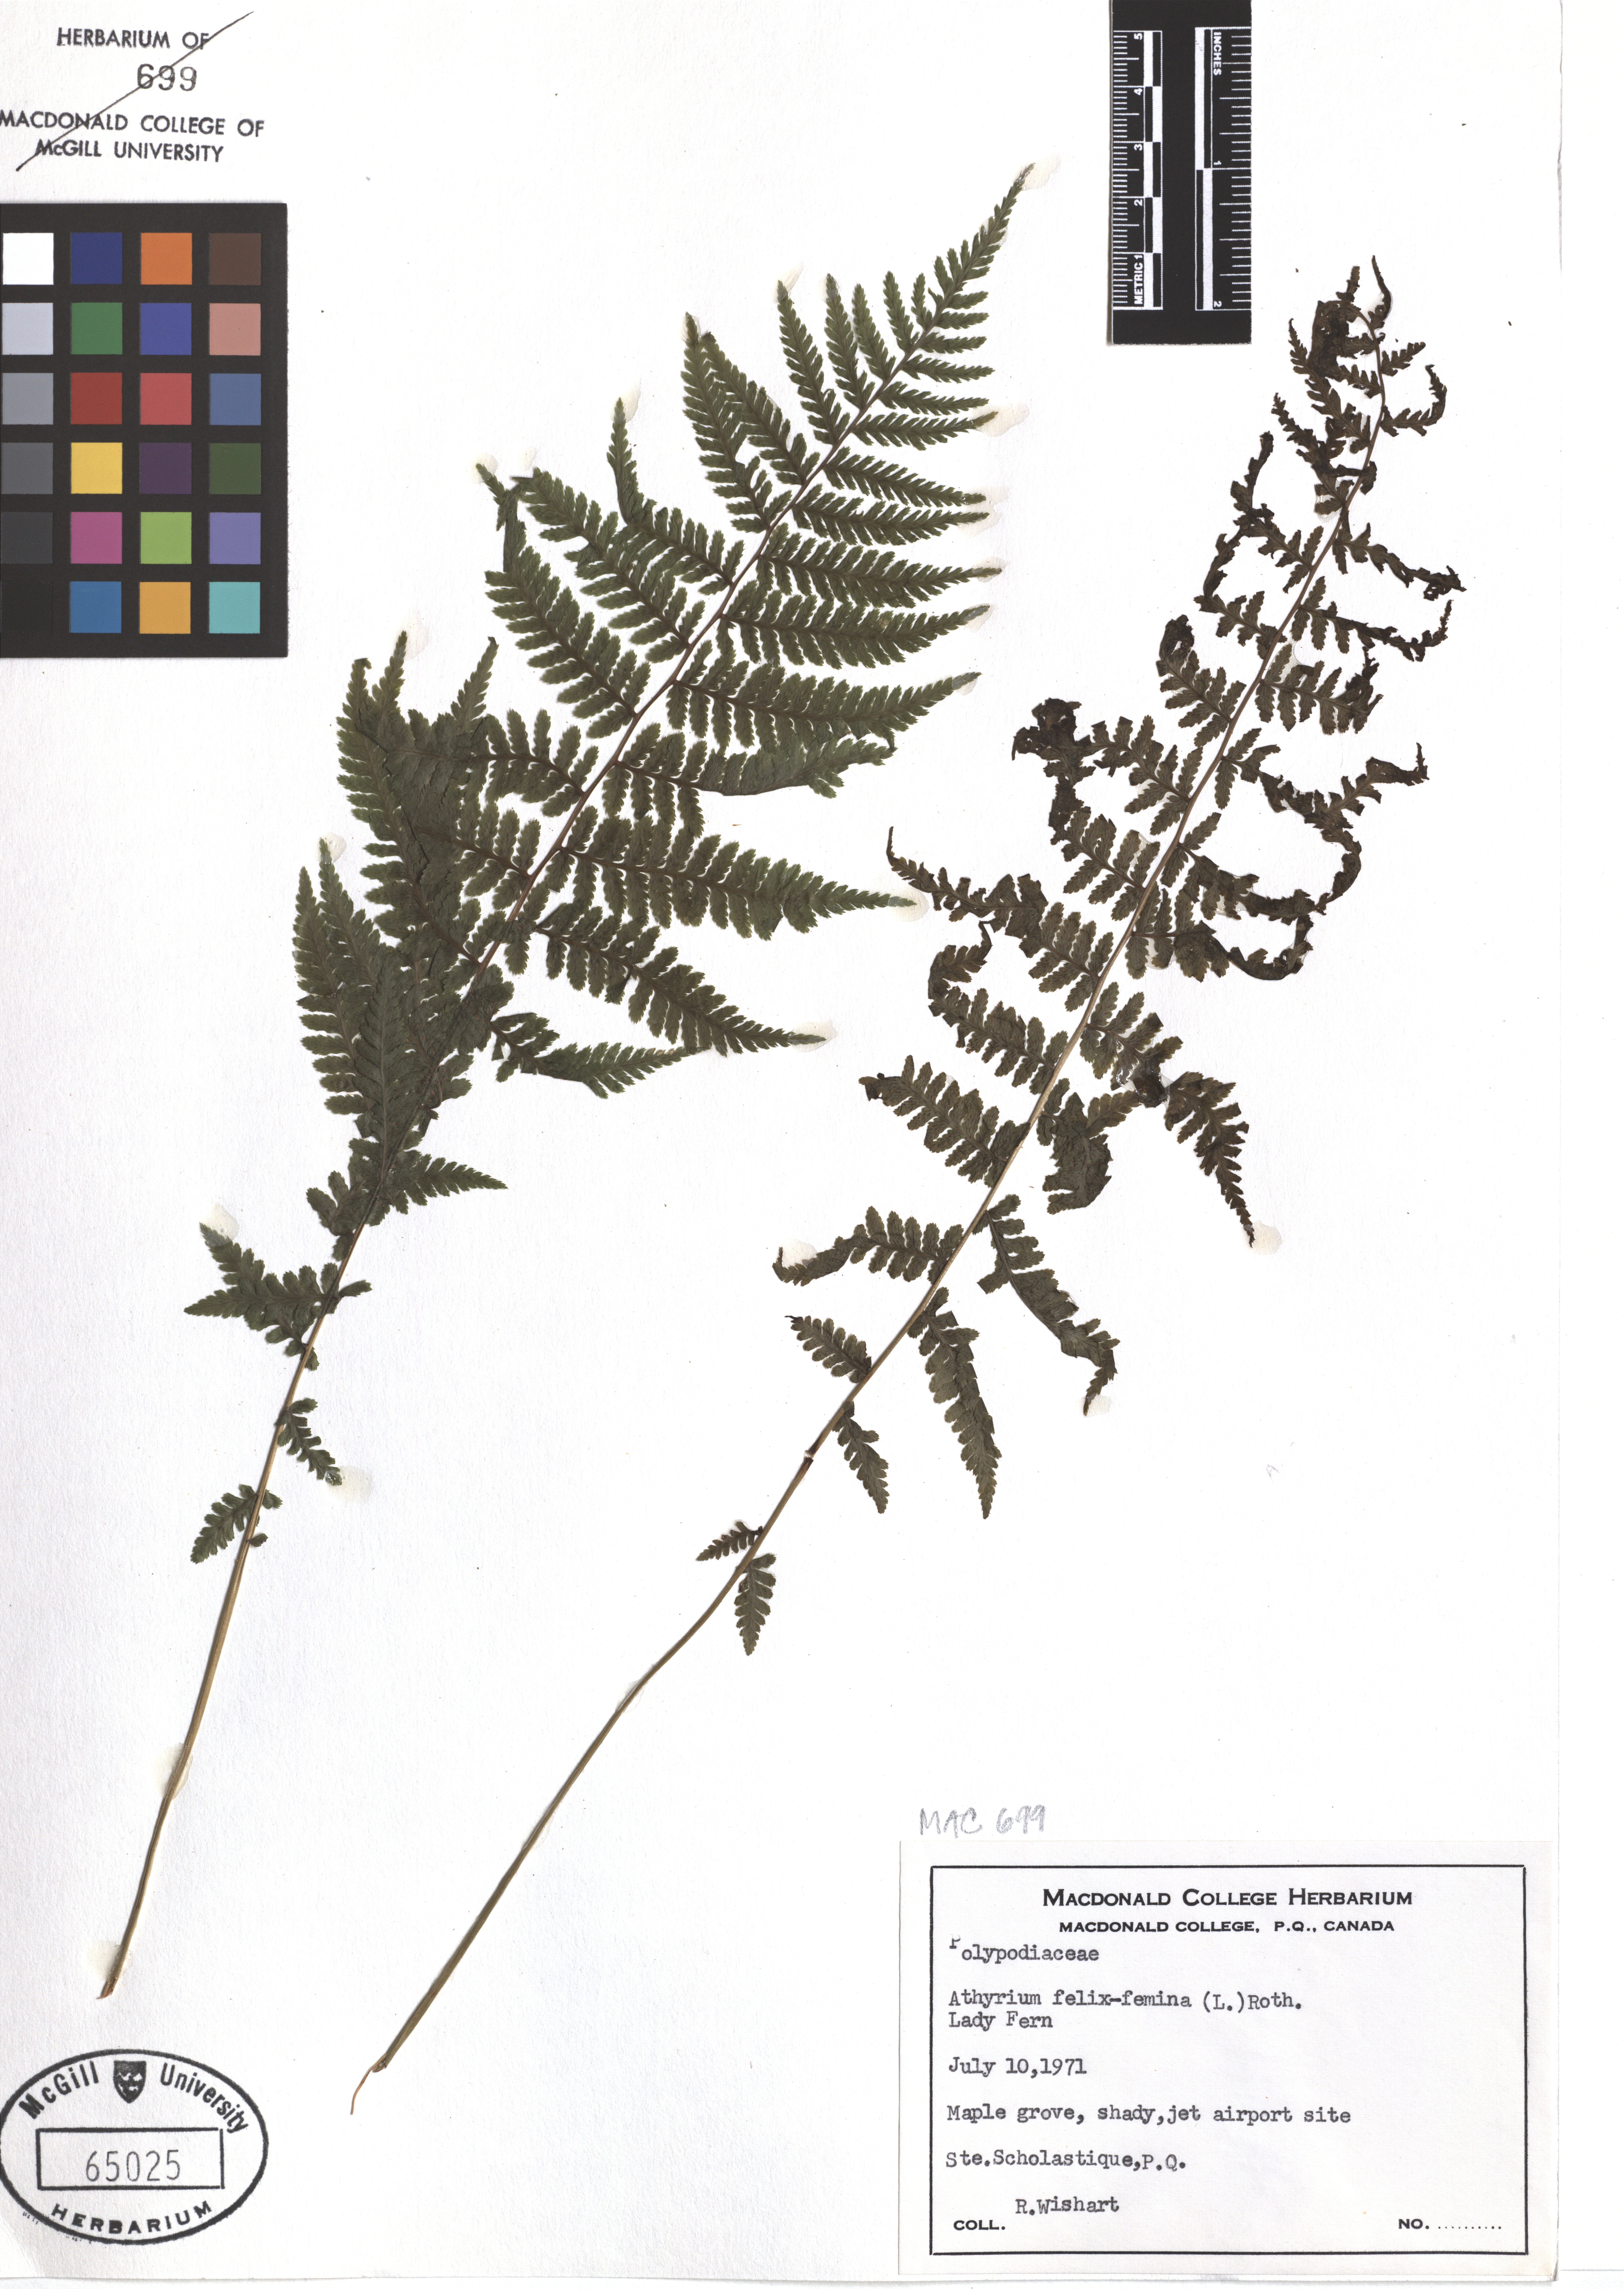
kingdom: Plantae
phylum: Tracheophyta
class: Polypodiopsida
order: Polypodiales
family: Athyriaceae
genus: Athyrium
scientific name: Athyrium filix-femina
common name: Lady fern
